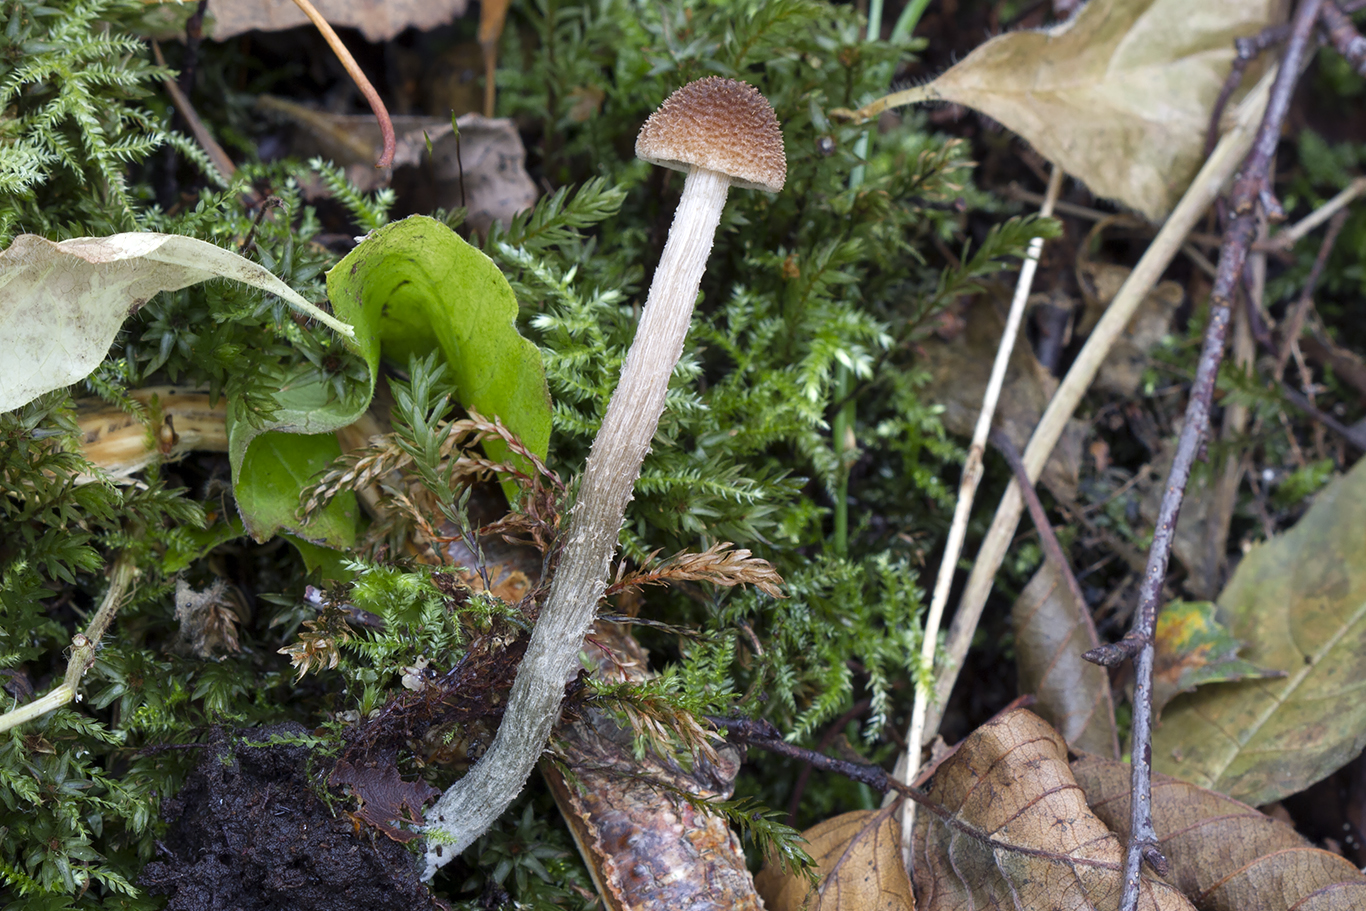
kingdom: Fungi
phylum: Basidiomycota
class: Agaricomycetes
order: Agaricales
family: Inocybaceae
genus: Inosperma
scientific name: Inosperma calamistratum
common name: grønfodet trævlhat
